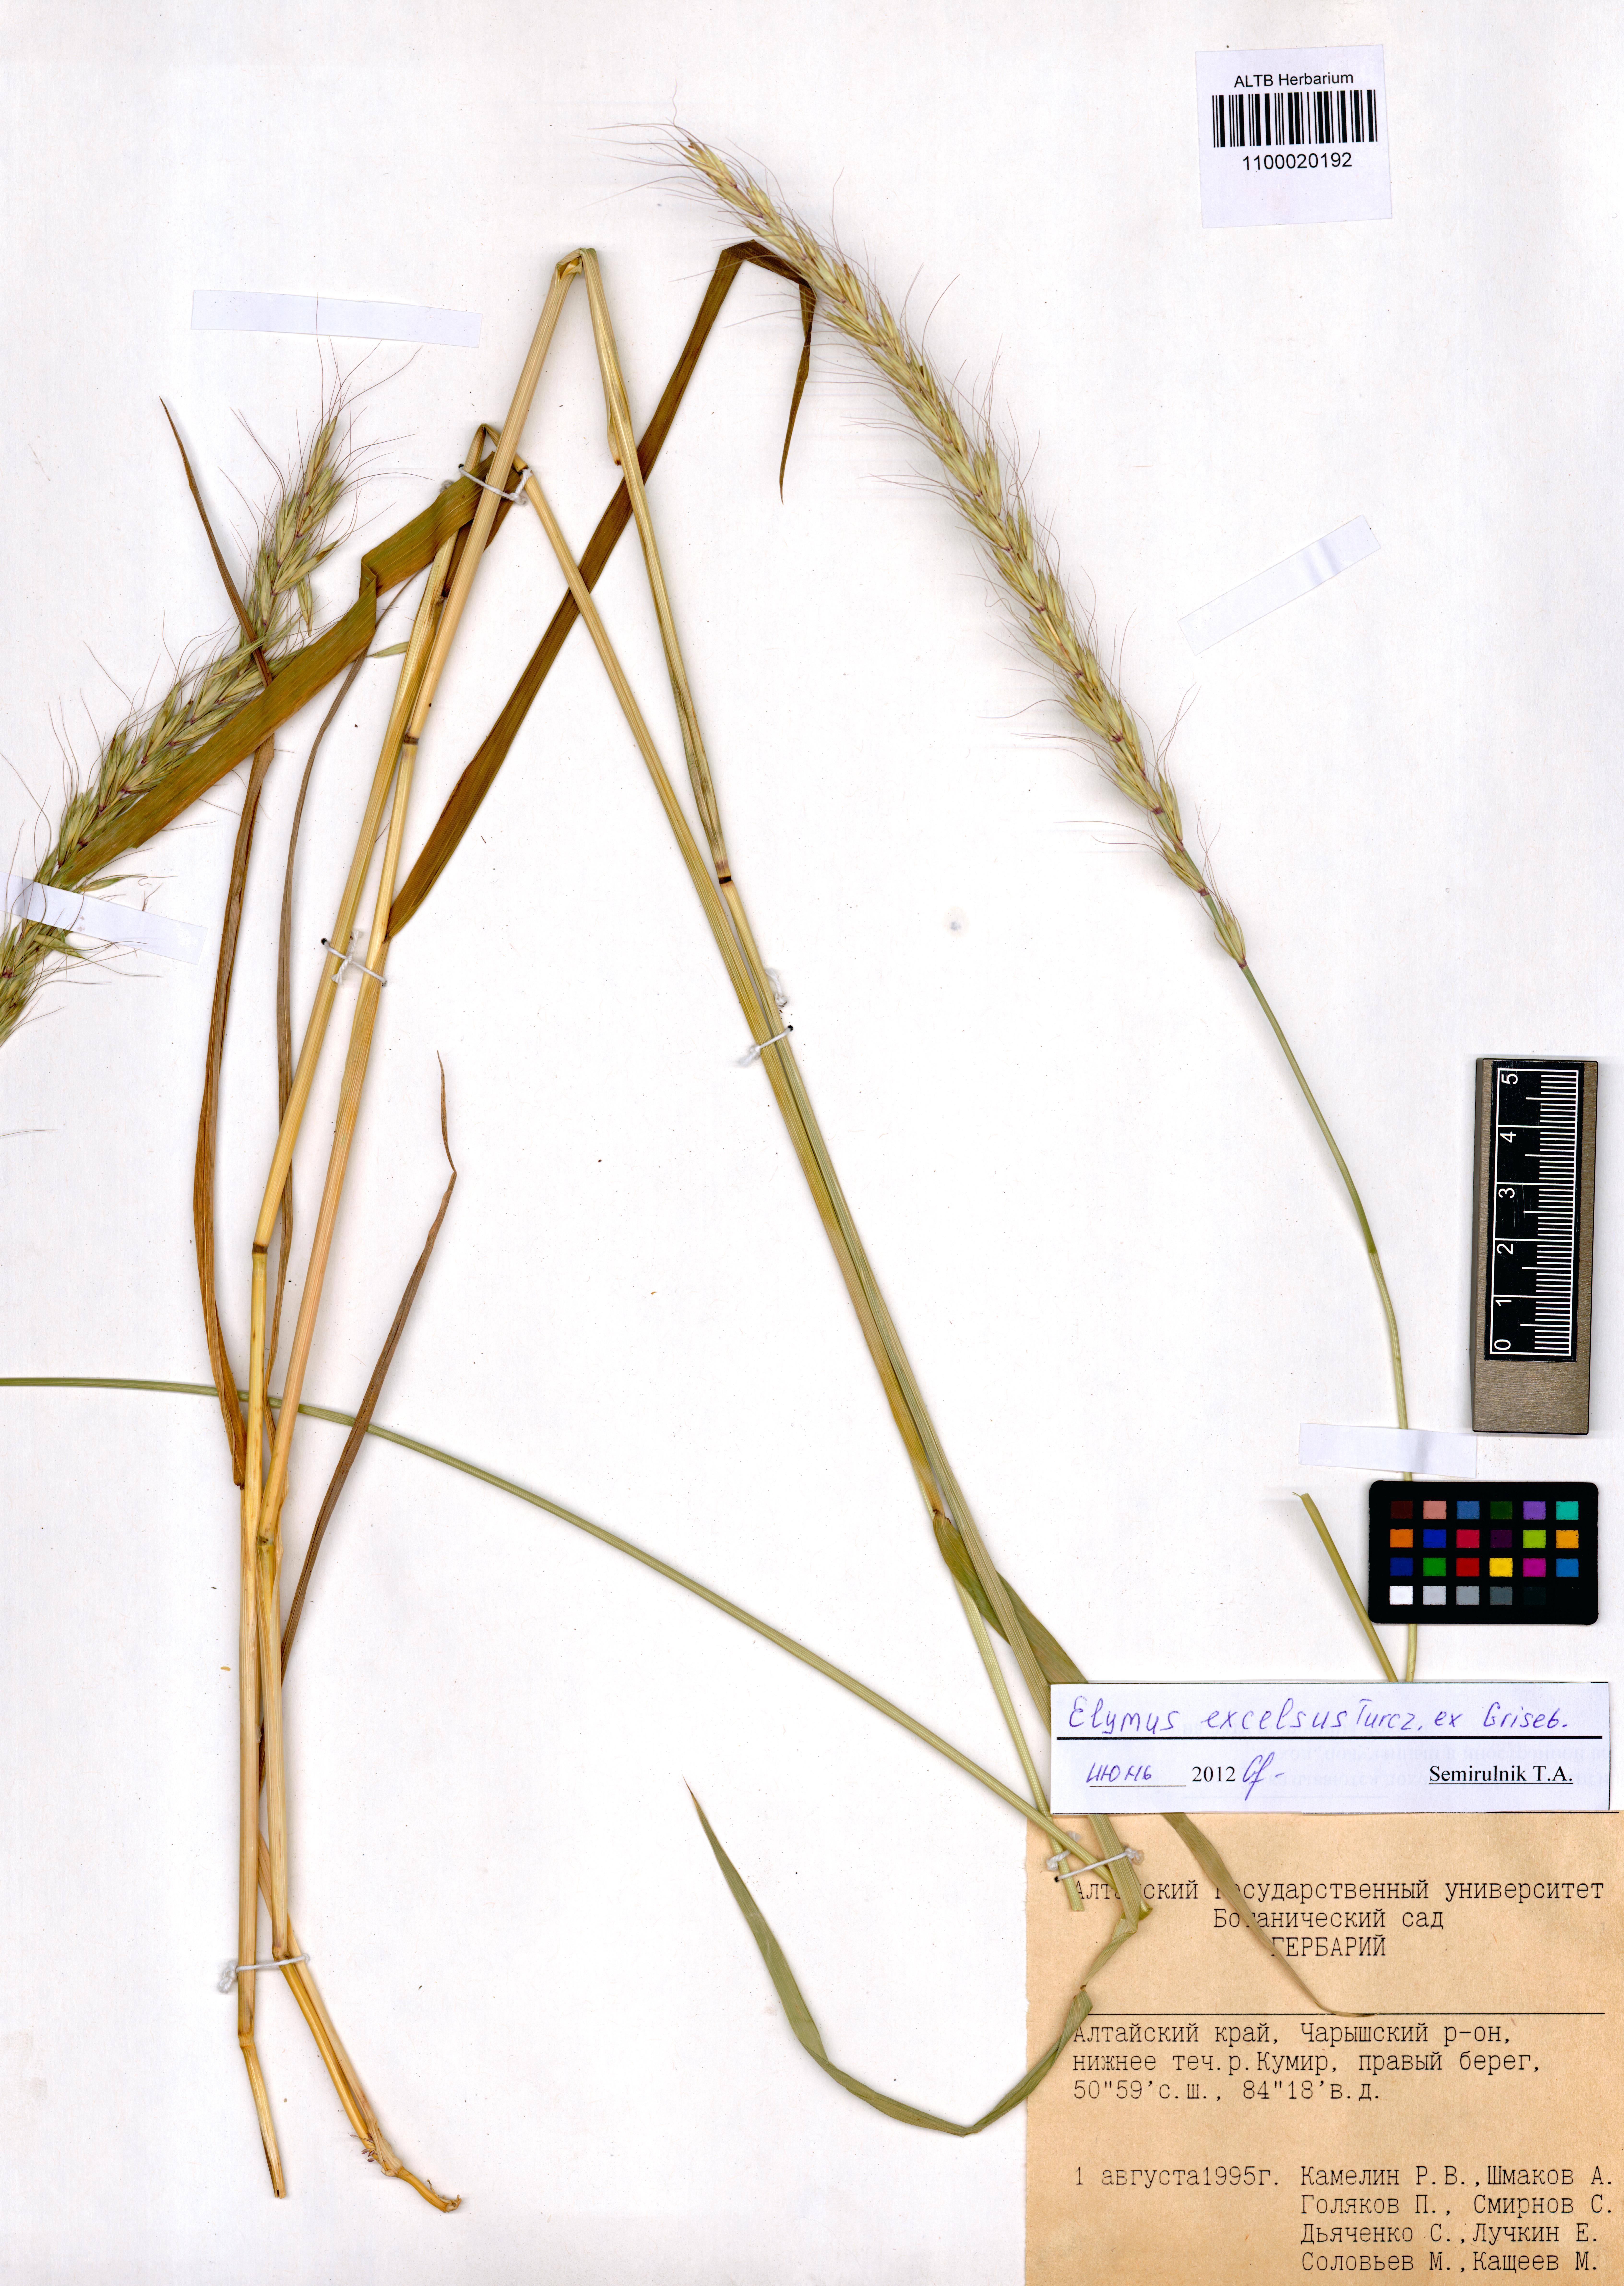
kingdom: Plantae
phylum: Tracheophyta
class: Liliopsida
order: Poales
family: Poaceae
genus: Elymus
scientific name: Elymus dahuricus
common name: Dahurian wild rye
